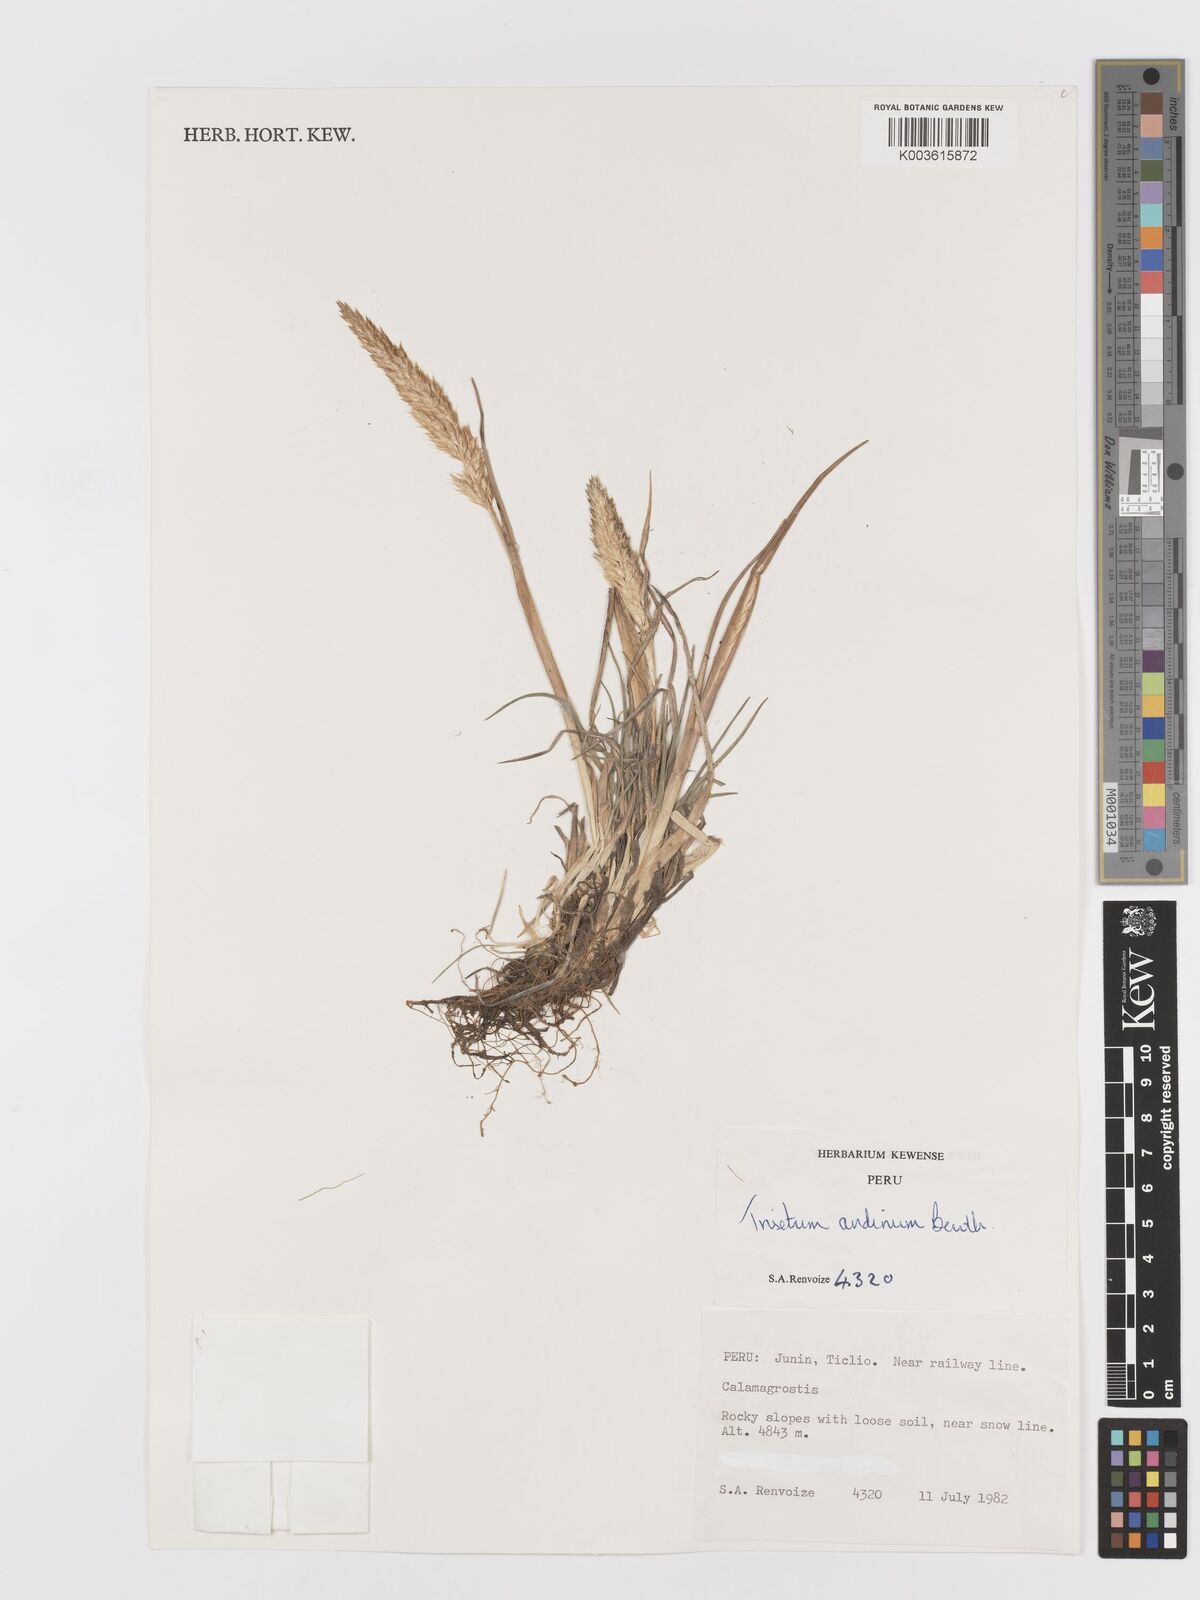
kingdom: Plantae
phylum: Tracheophyta
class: Liliopsida
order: Poales
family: Poaceae
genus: Koeleria
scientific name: Koeleria spicata
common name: Mountain trisetum
